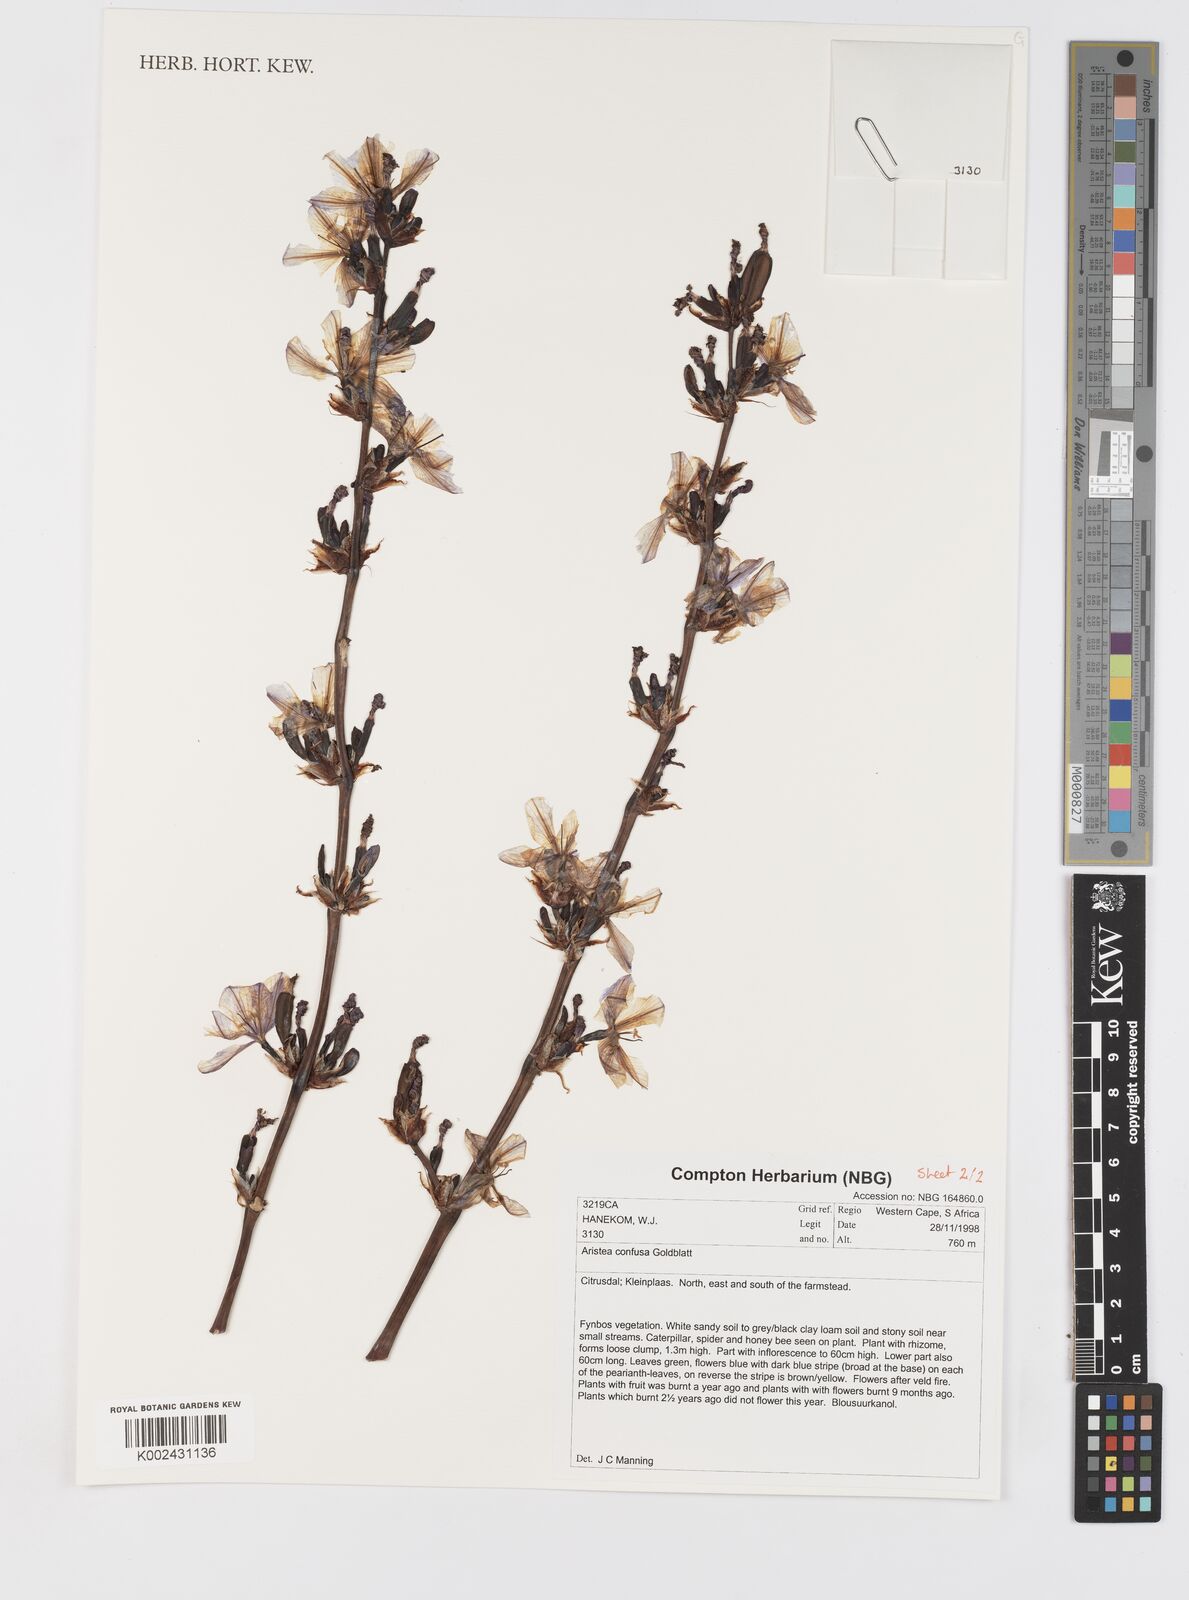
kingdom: Plantae
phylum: Tracheophyta
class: Liliopsida
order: Asparagales
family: Iridaceae
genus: Aristea
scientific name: Aristea bakeri
